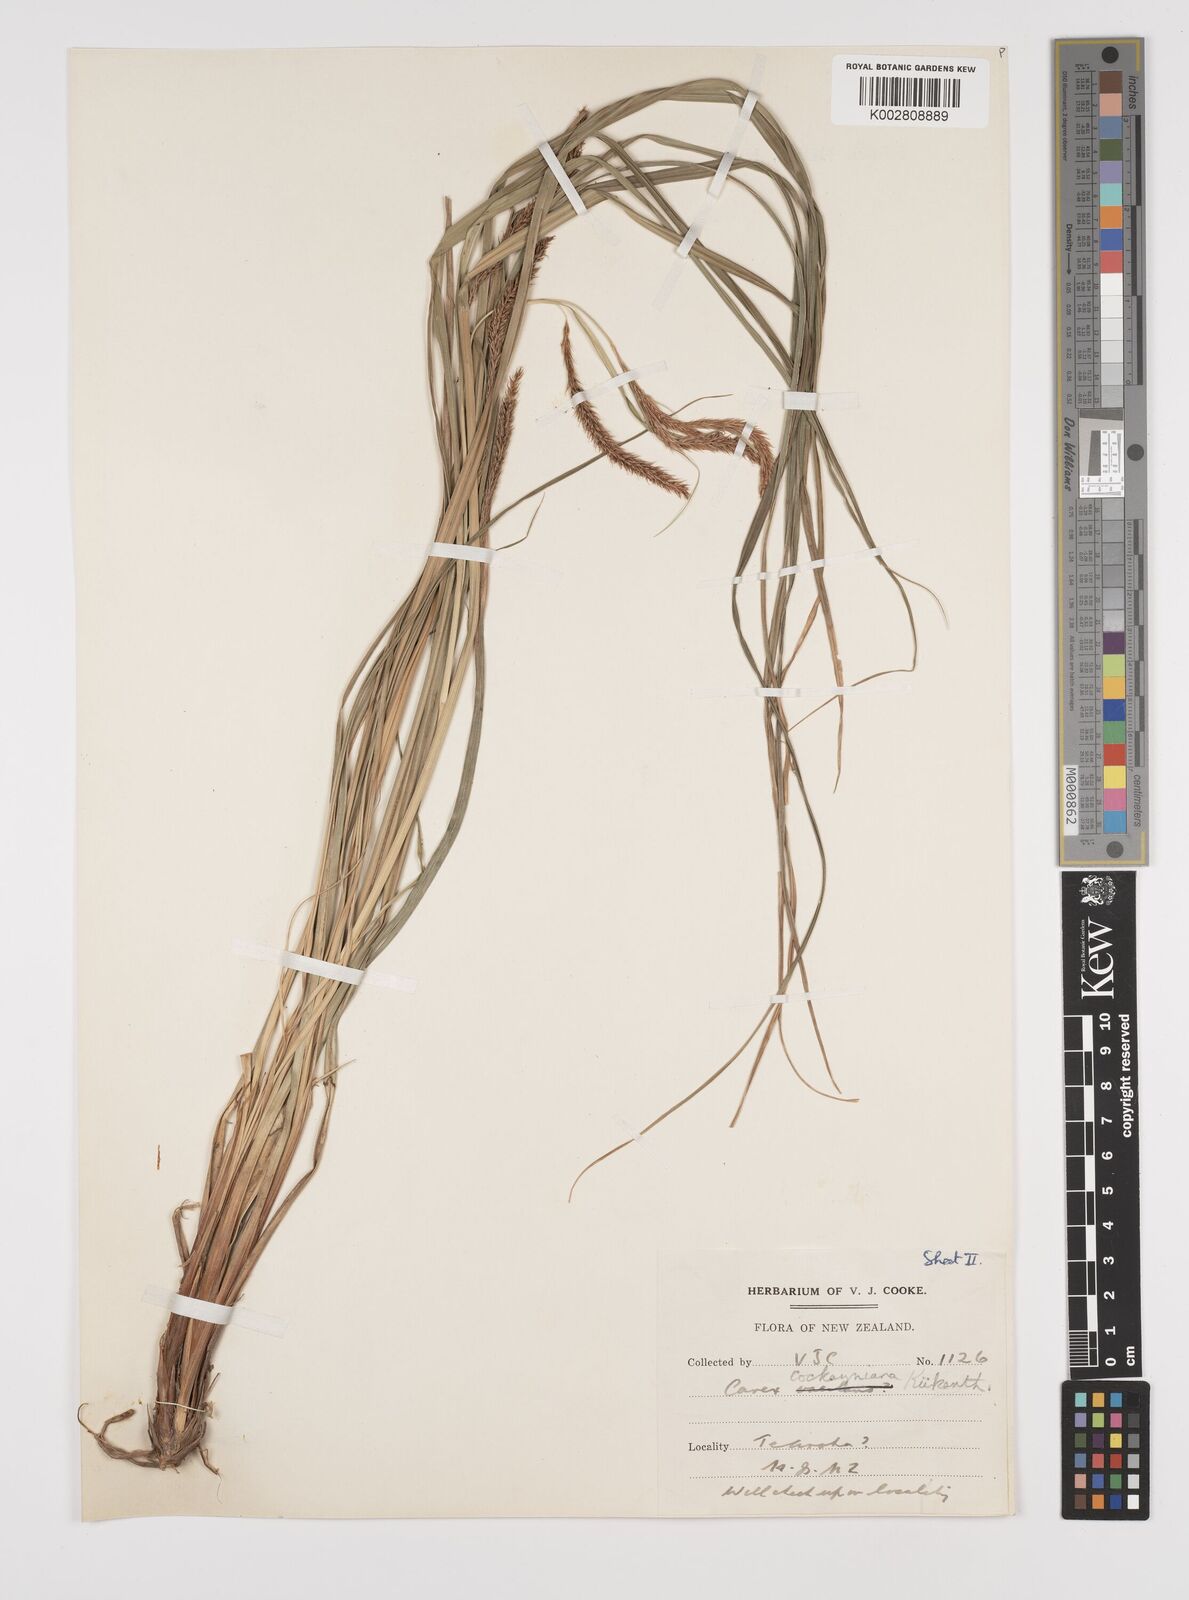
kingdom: Plantae
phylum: Tracheophyta
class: Liliopsida
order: Poales
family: Cyperaceae
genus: Carex
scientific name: Carex forsteri
